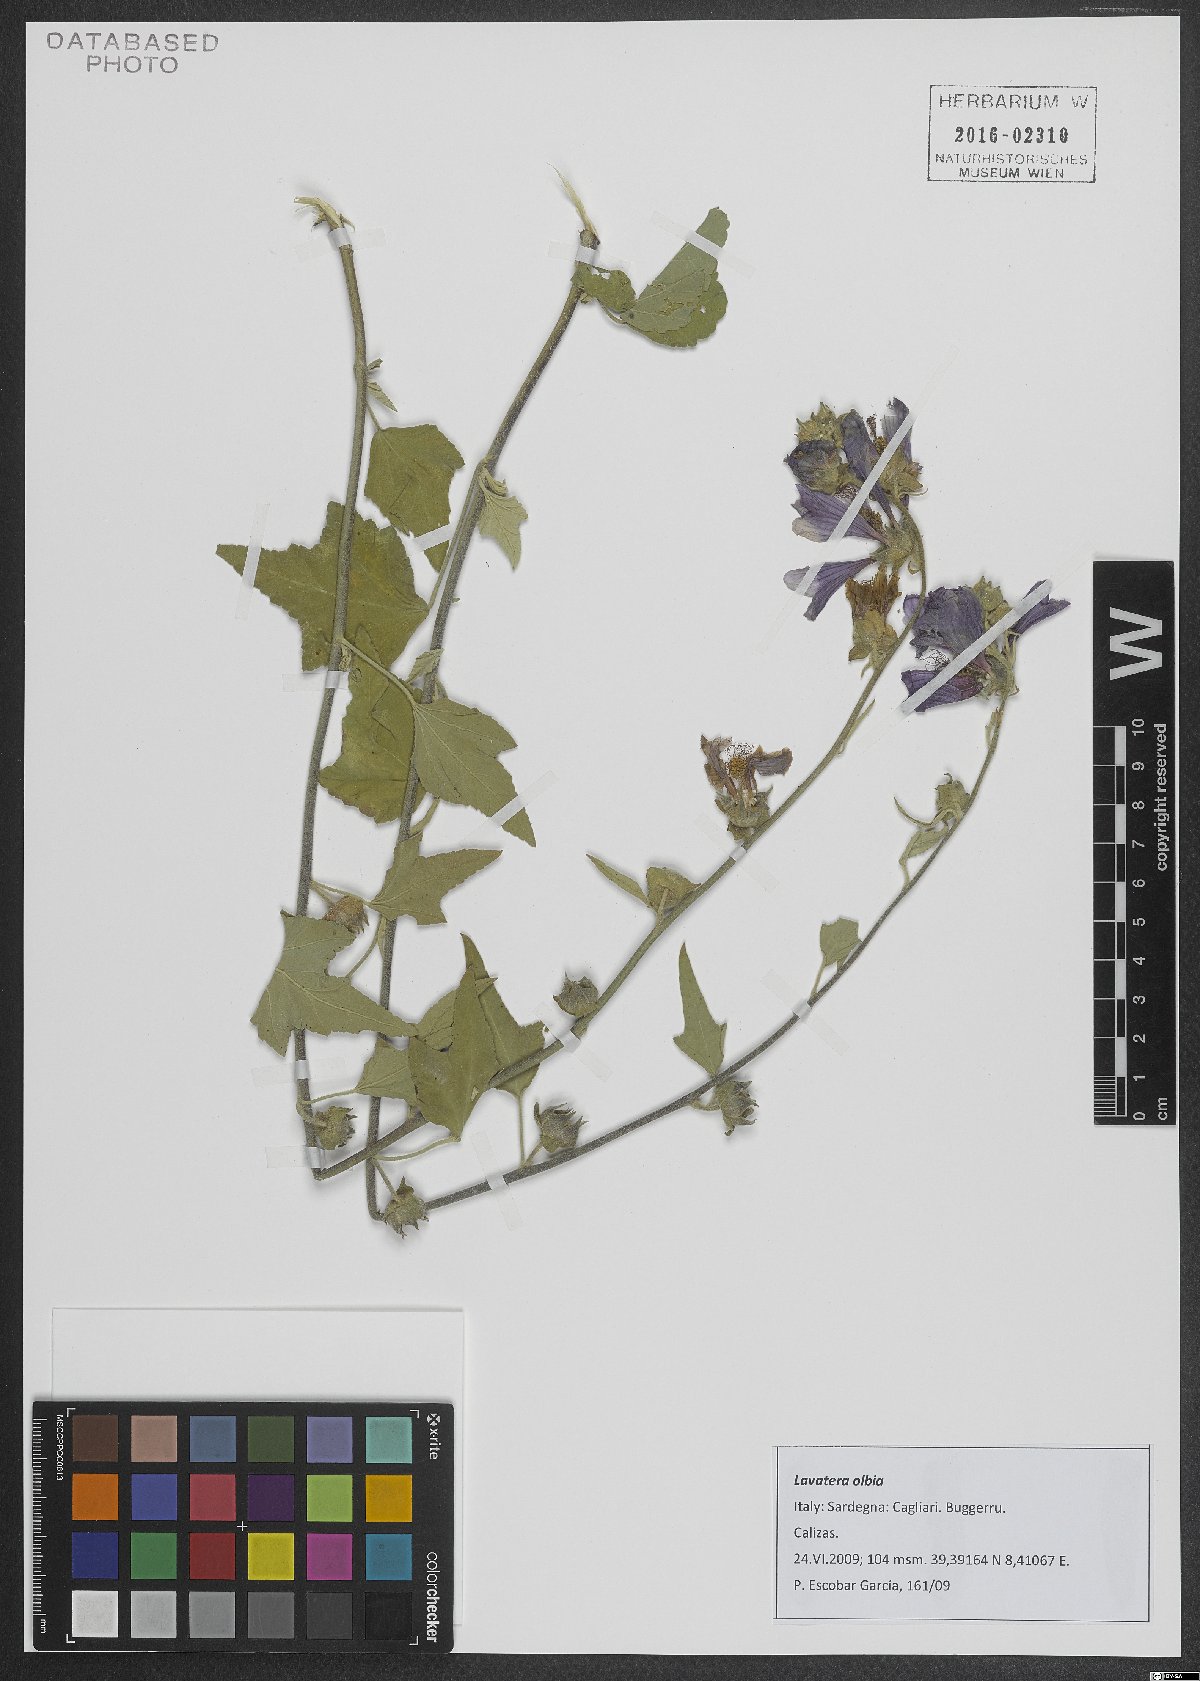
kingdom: Plantae
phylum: Tracheophyta
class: Magnoliopsida
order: Malvales
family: Malvaceae
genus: Malva
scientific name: Malva olbia
